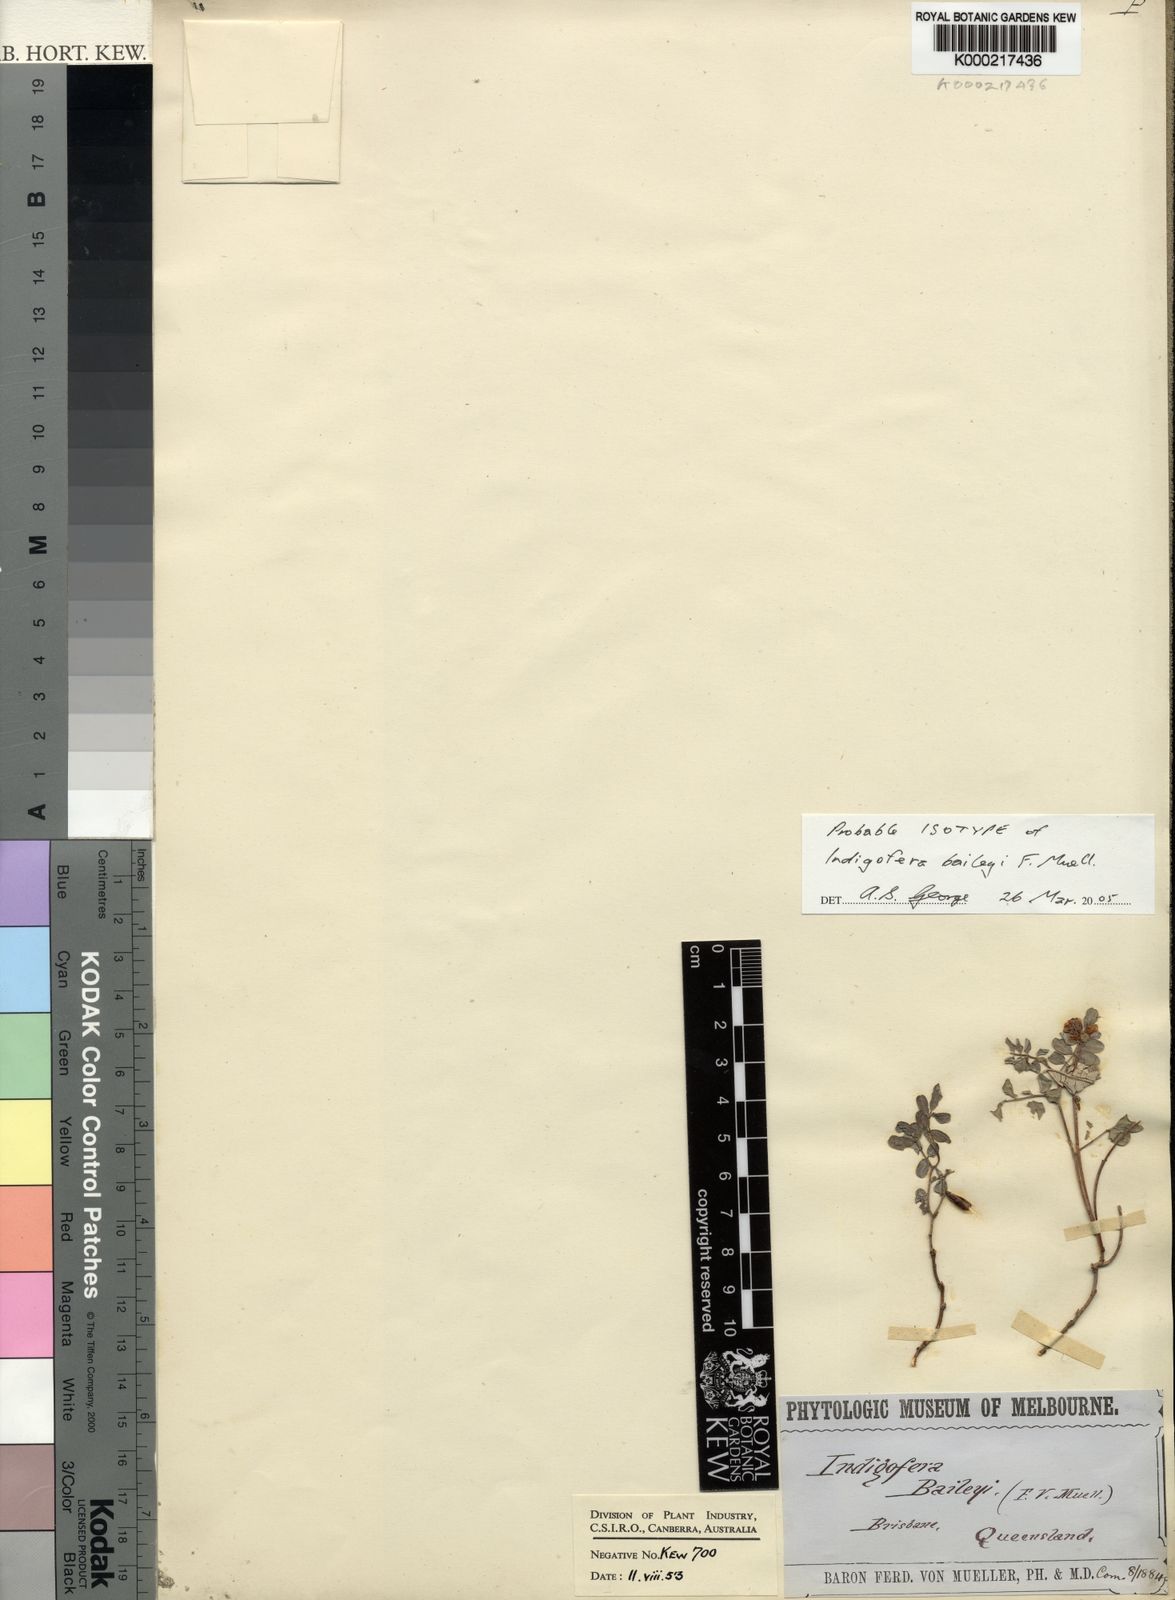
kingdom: Plantae
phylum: Tracheophyta
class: Magnoliopsida
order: Fabales
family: Fabaceae
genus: Indigofera
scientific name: Indigofera baileyi
